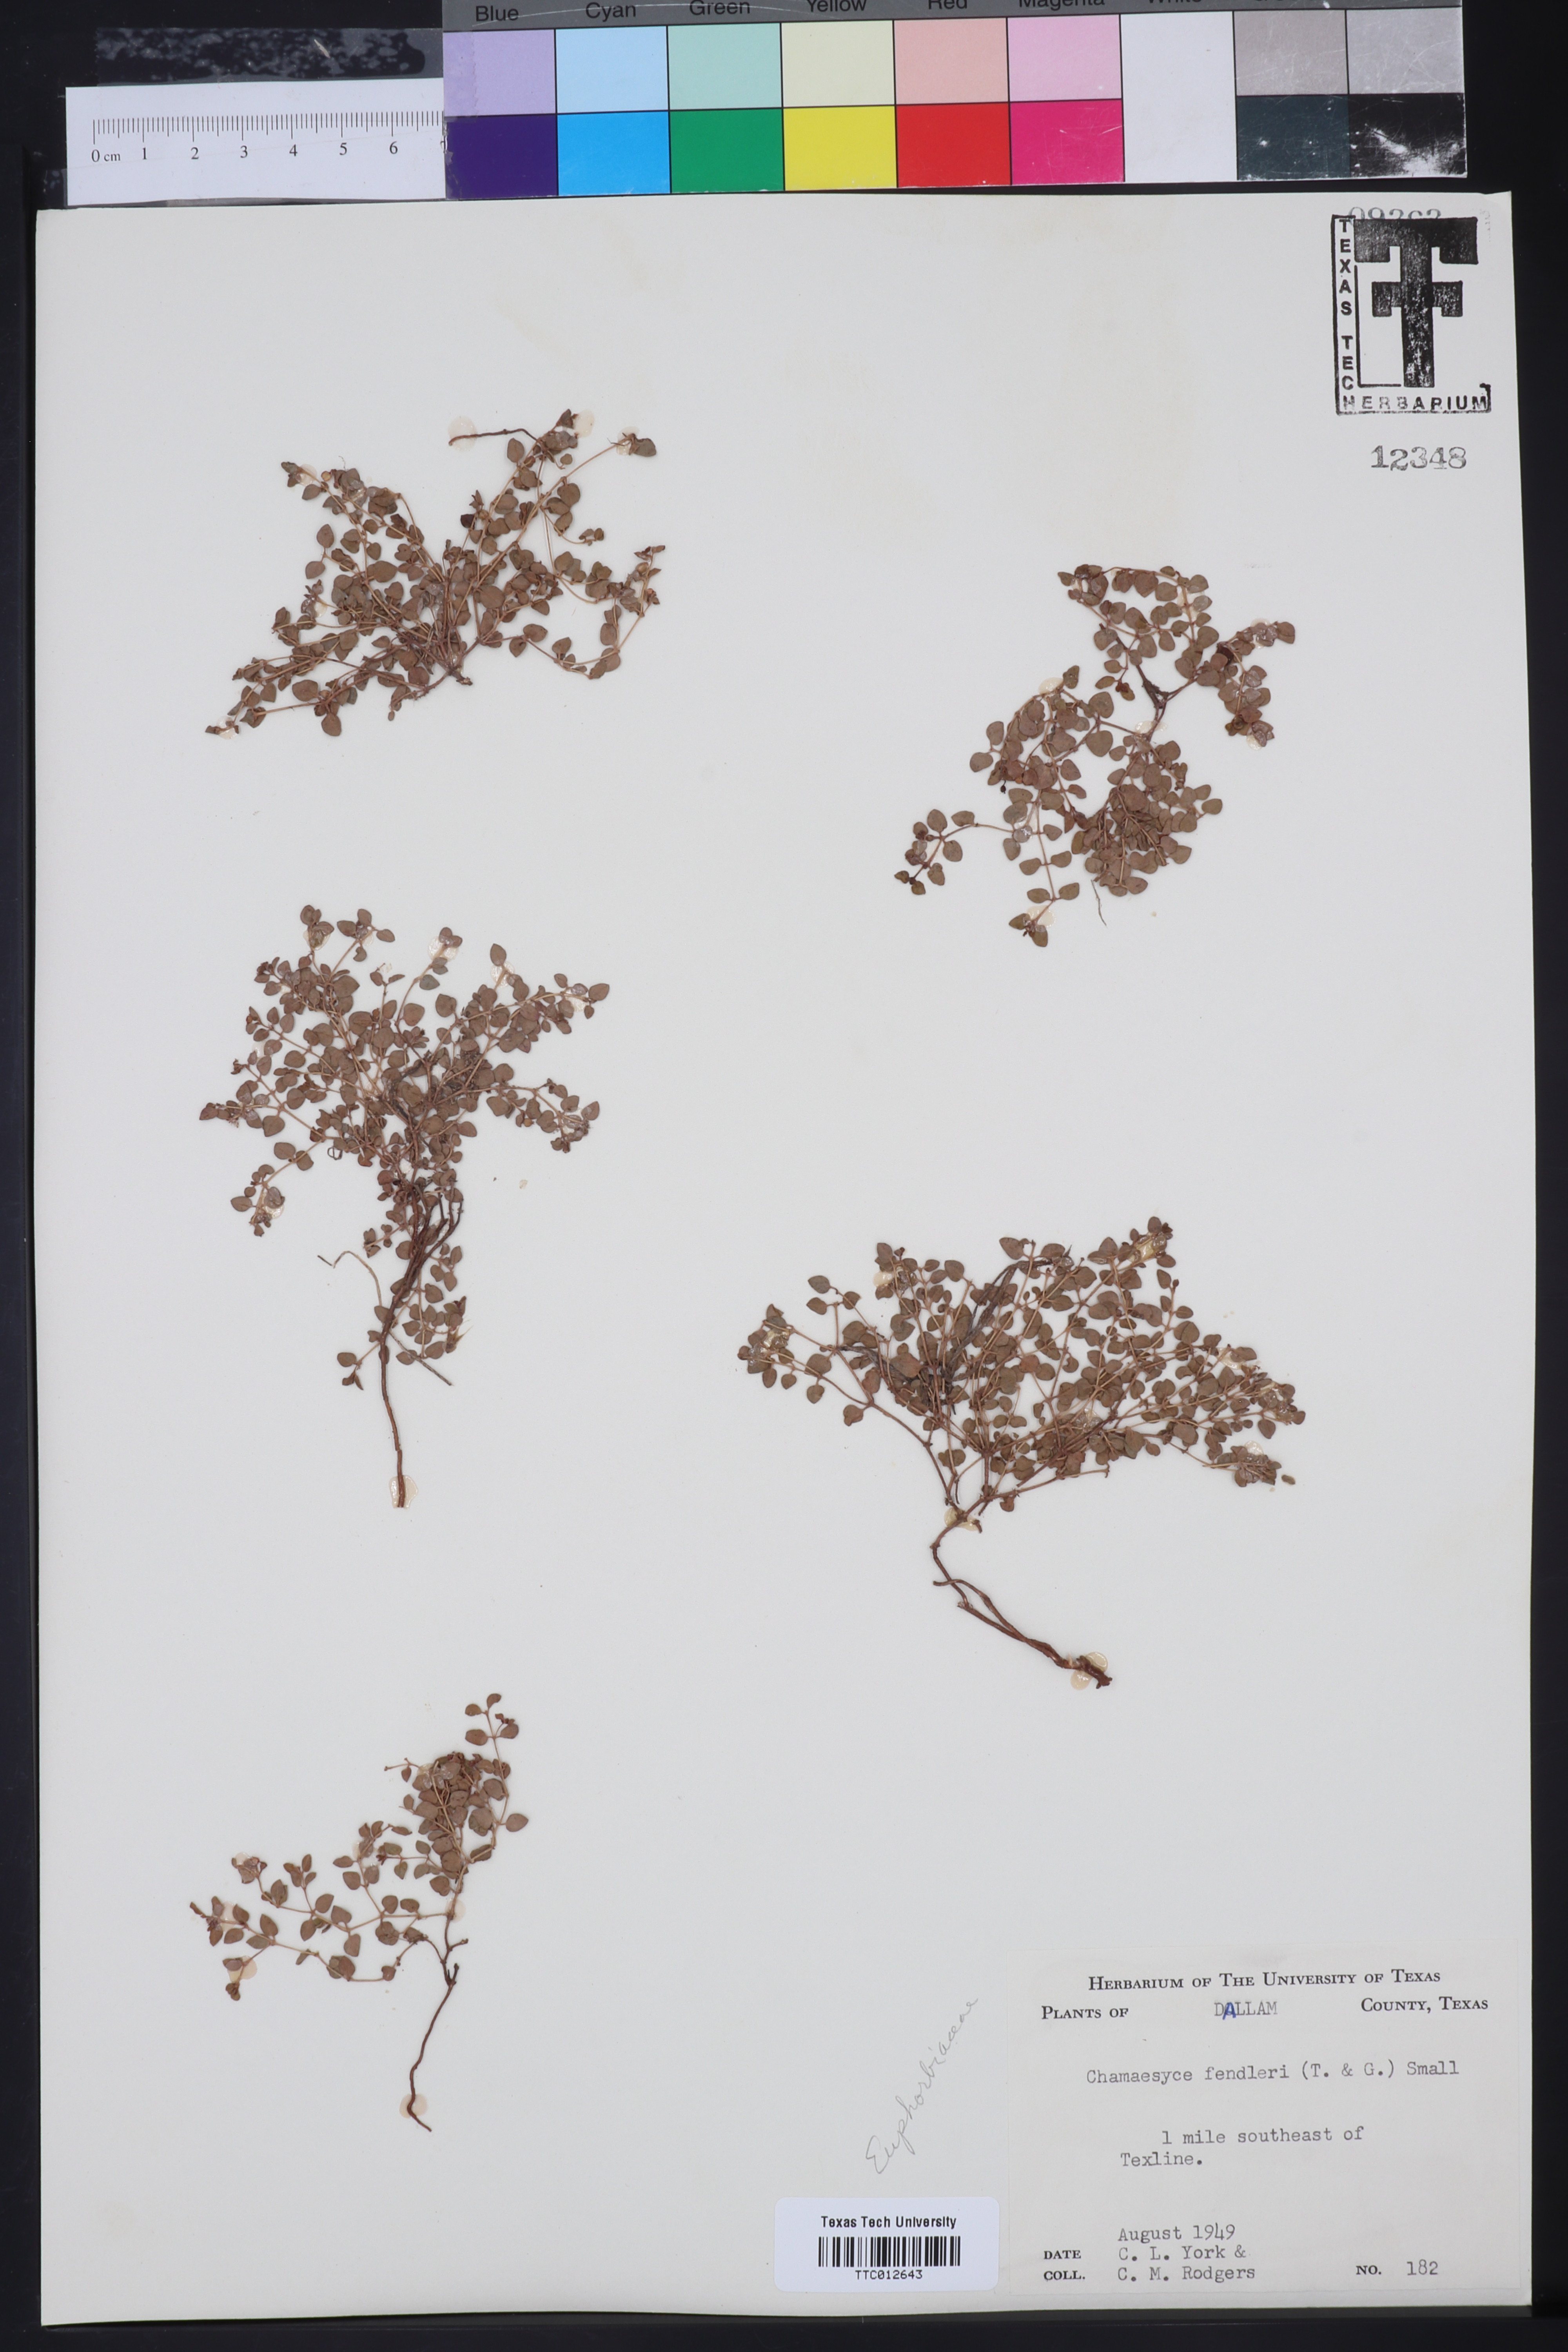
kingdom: Plantae
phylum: Tracheophyta
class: Magnoliopsida
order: Malpighiales
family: Euphorbiaceae
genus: Euphorbia
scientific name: Euphorbia fendleri
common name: Fendler's euphorbia
